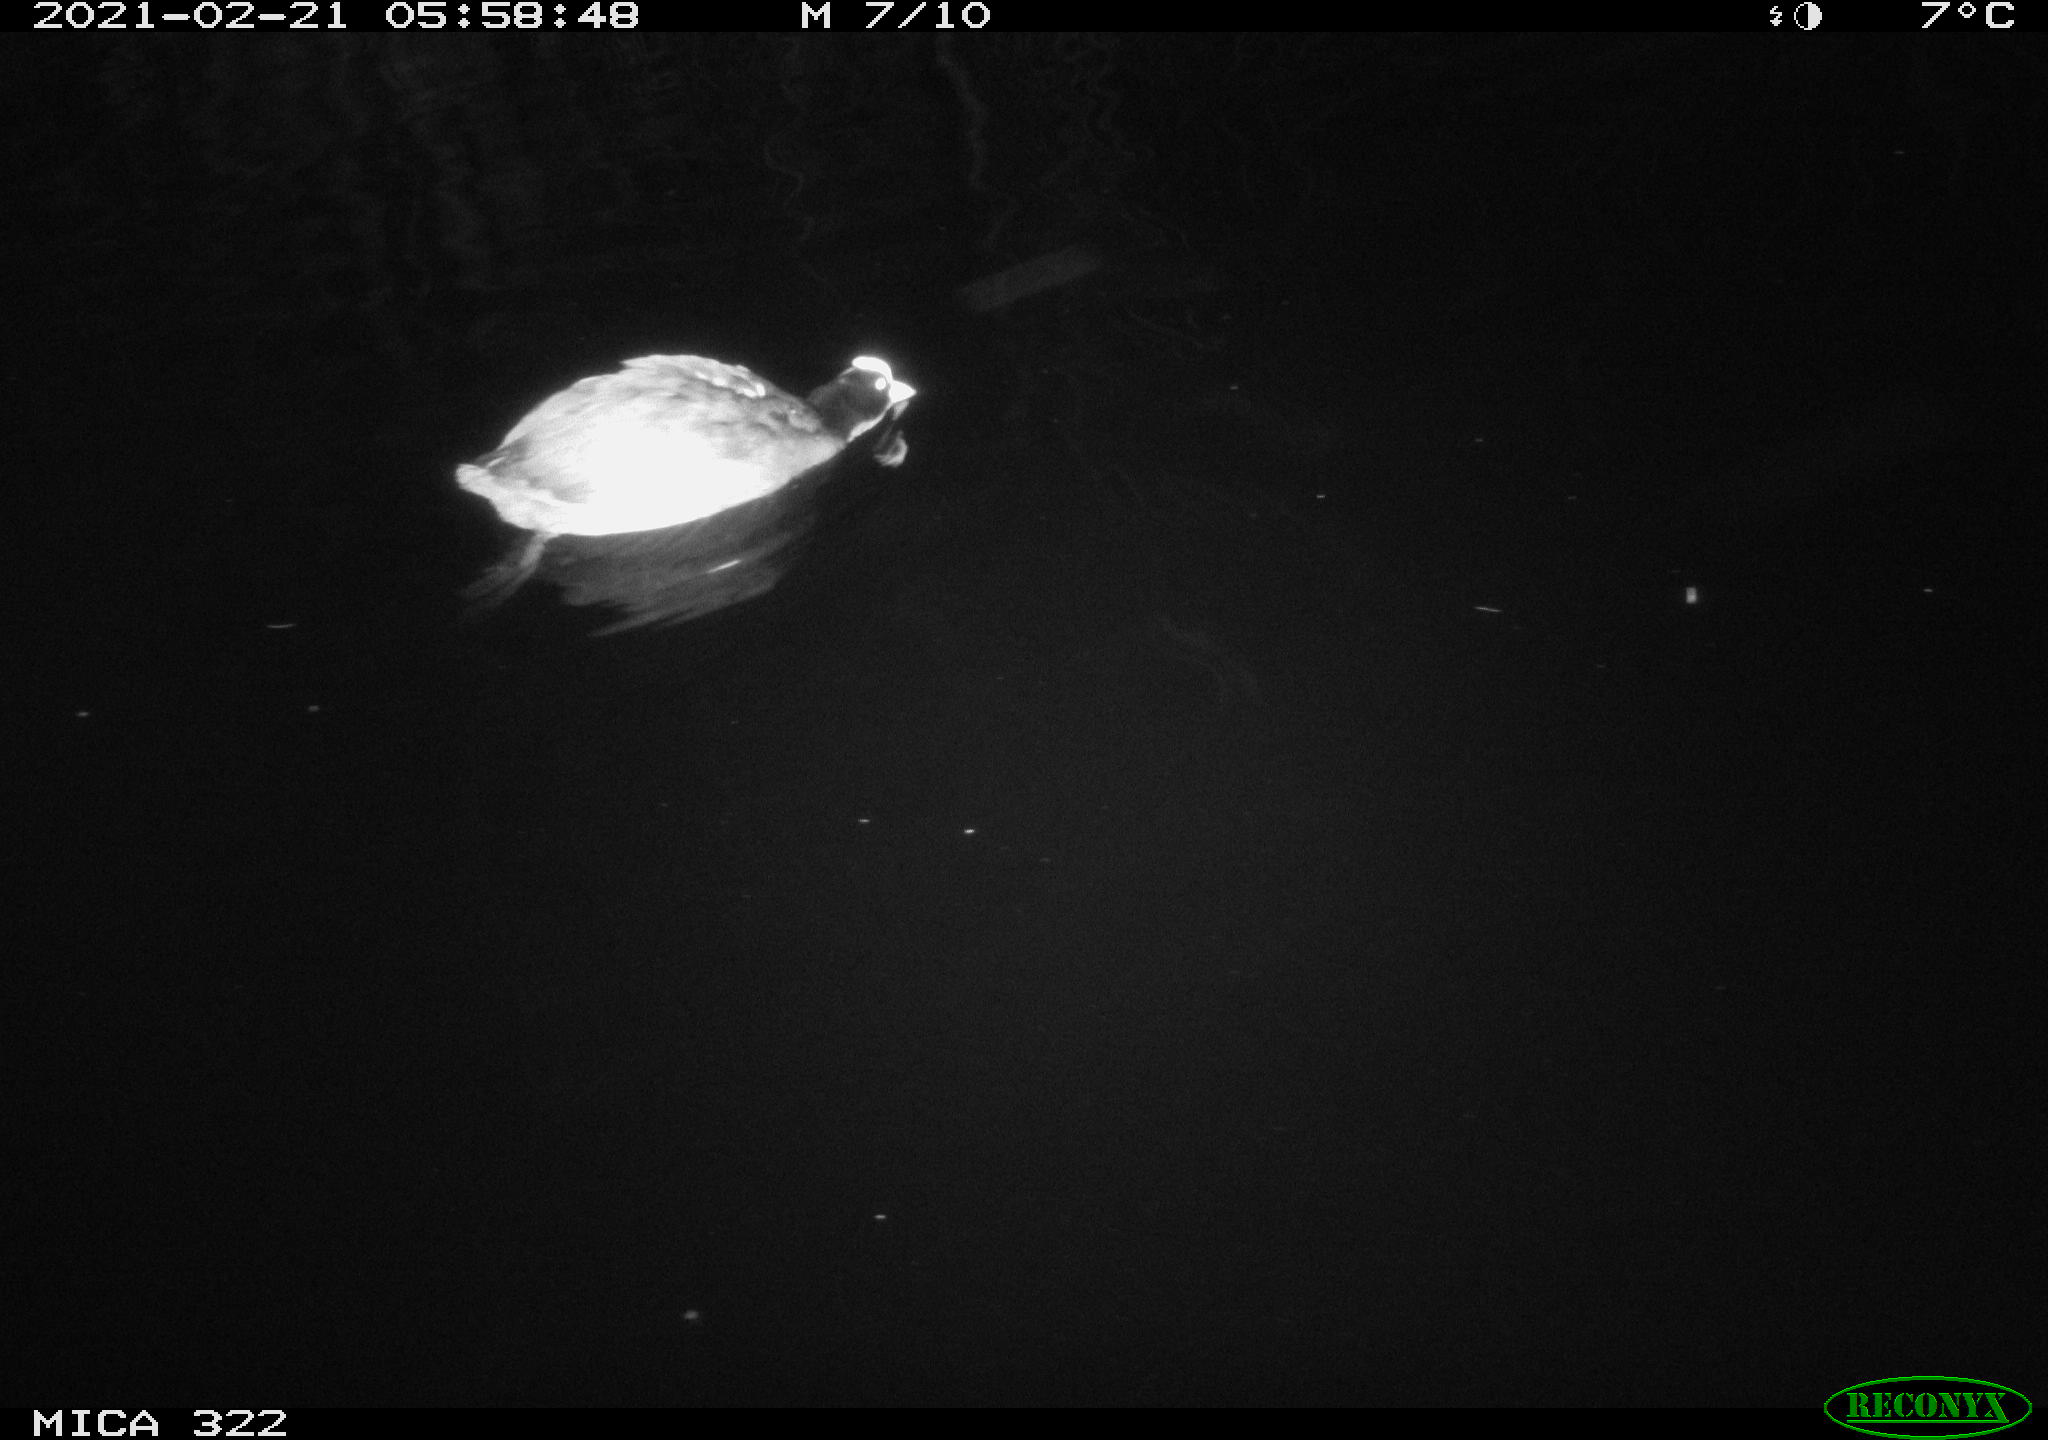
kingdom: Animalia
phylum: Chordata
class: Aves
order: Gruiformes
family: Rallidae
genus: Fulica
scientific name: Fulica atra
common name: Eurasian coot
